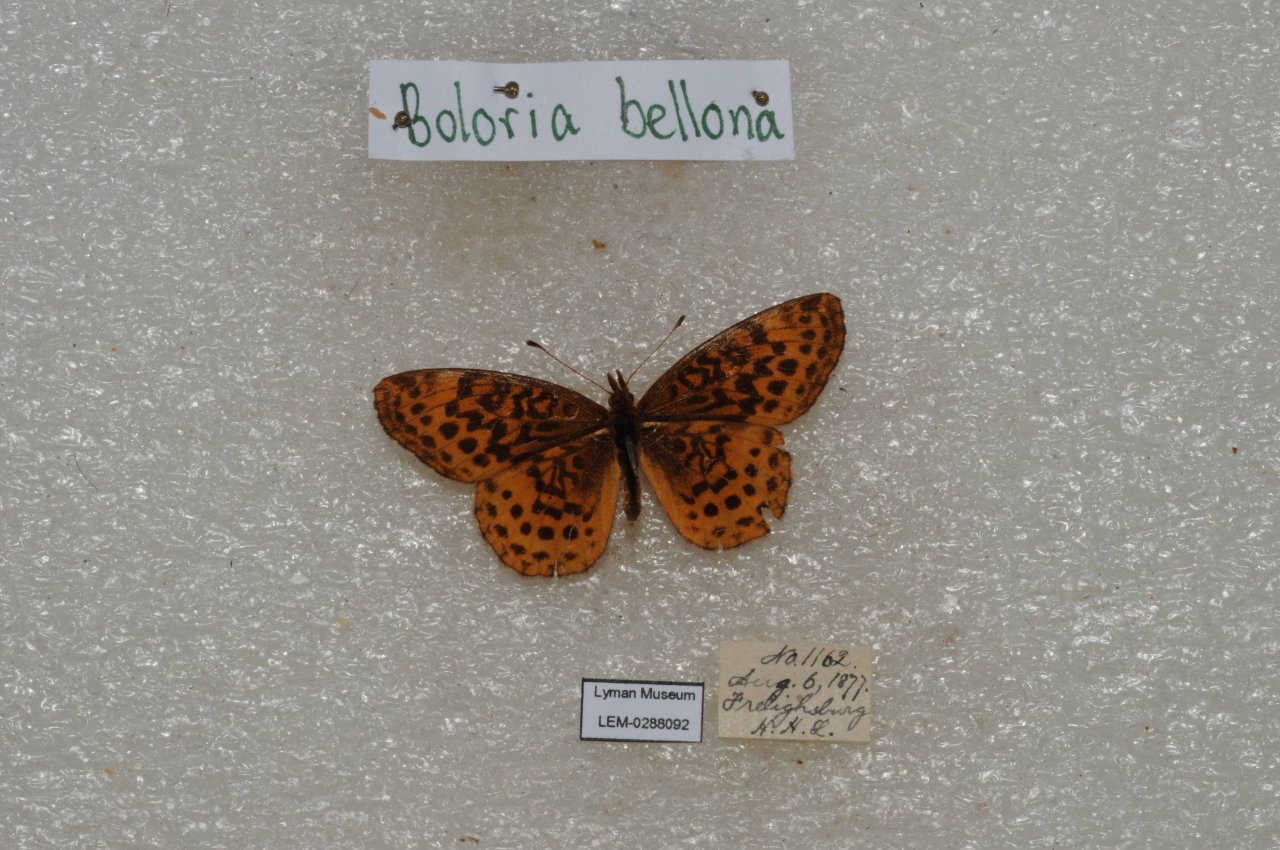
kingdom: Animalia
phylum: Arthropoda
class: Insecta
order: Lepidoptera
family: Nymphalidae
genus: Clossiana
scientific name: Clossiana toddi
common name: Meadow Fritillary
